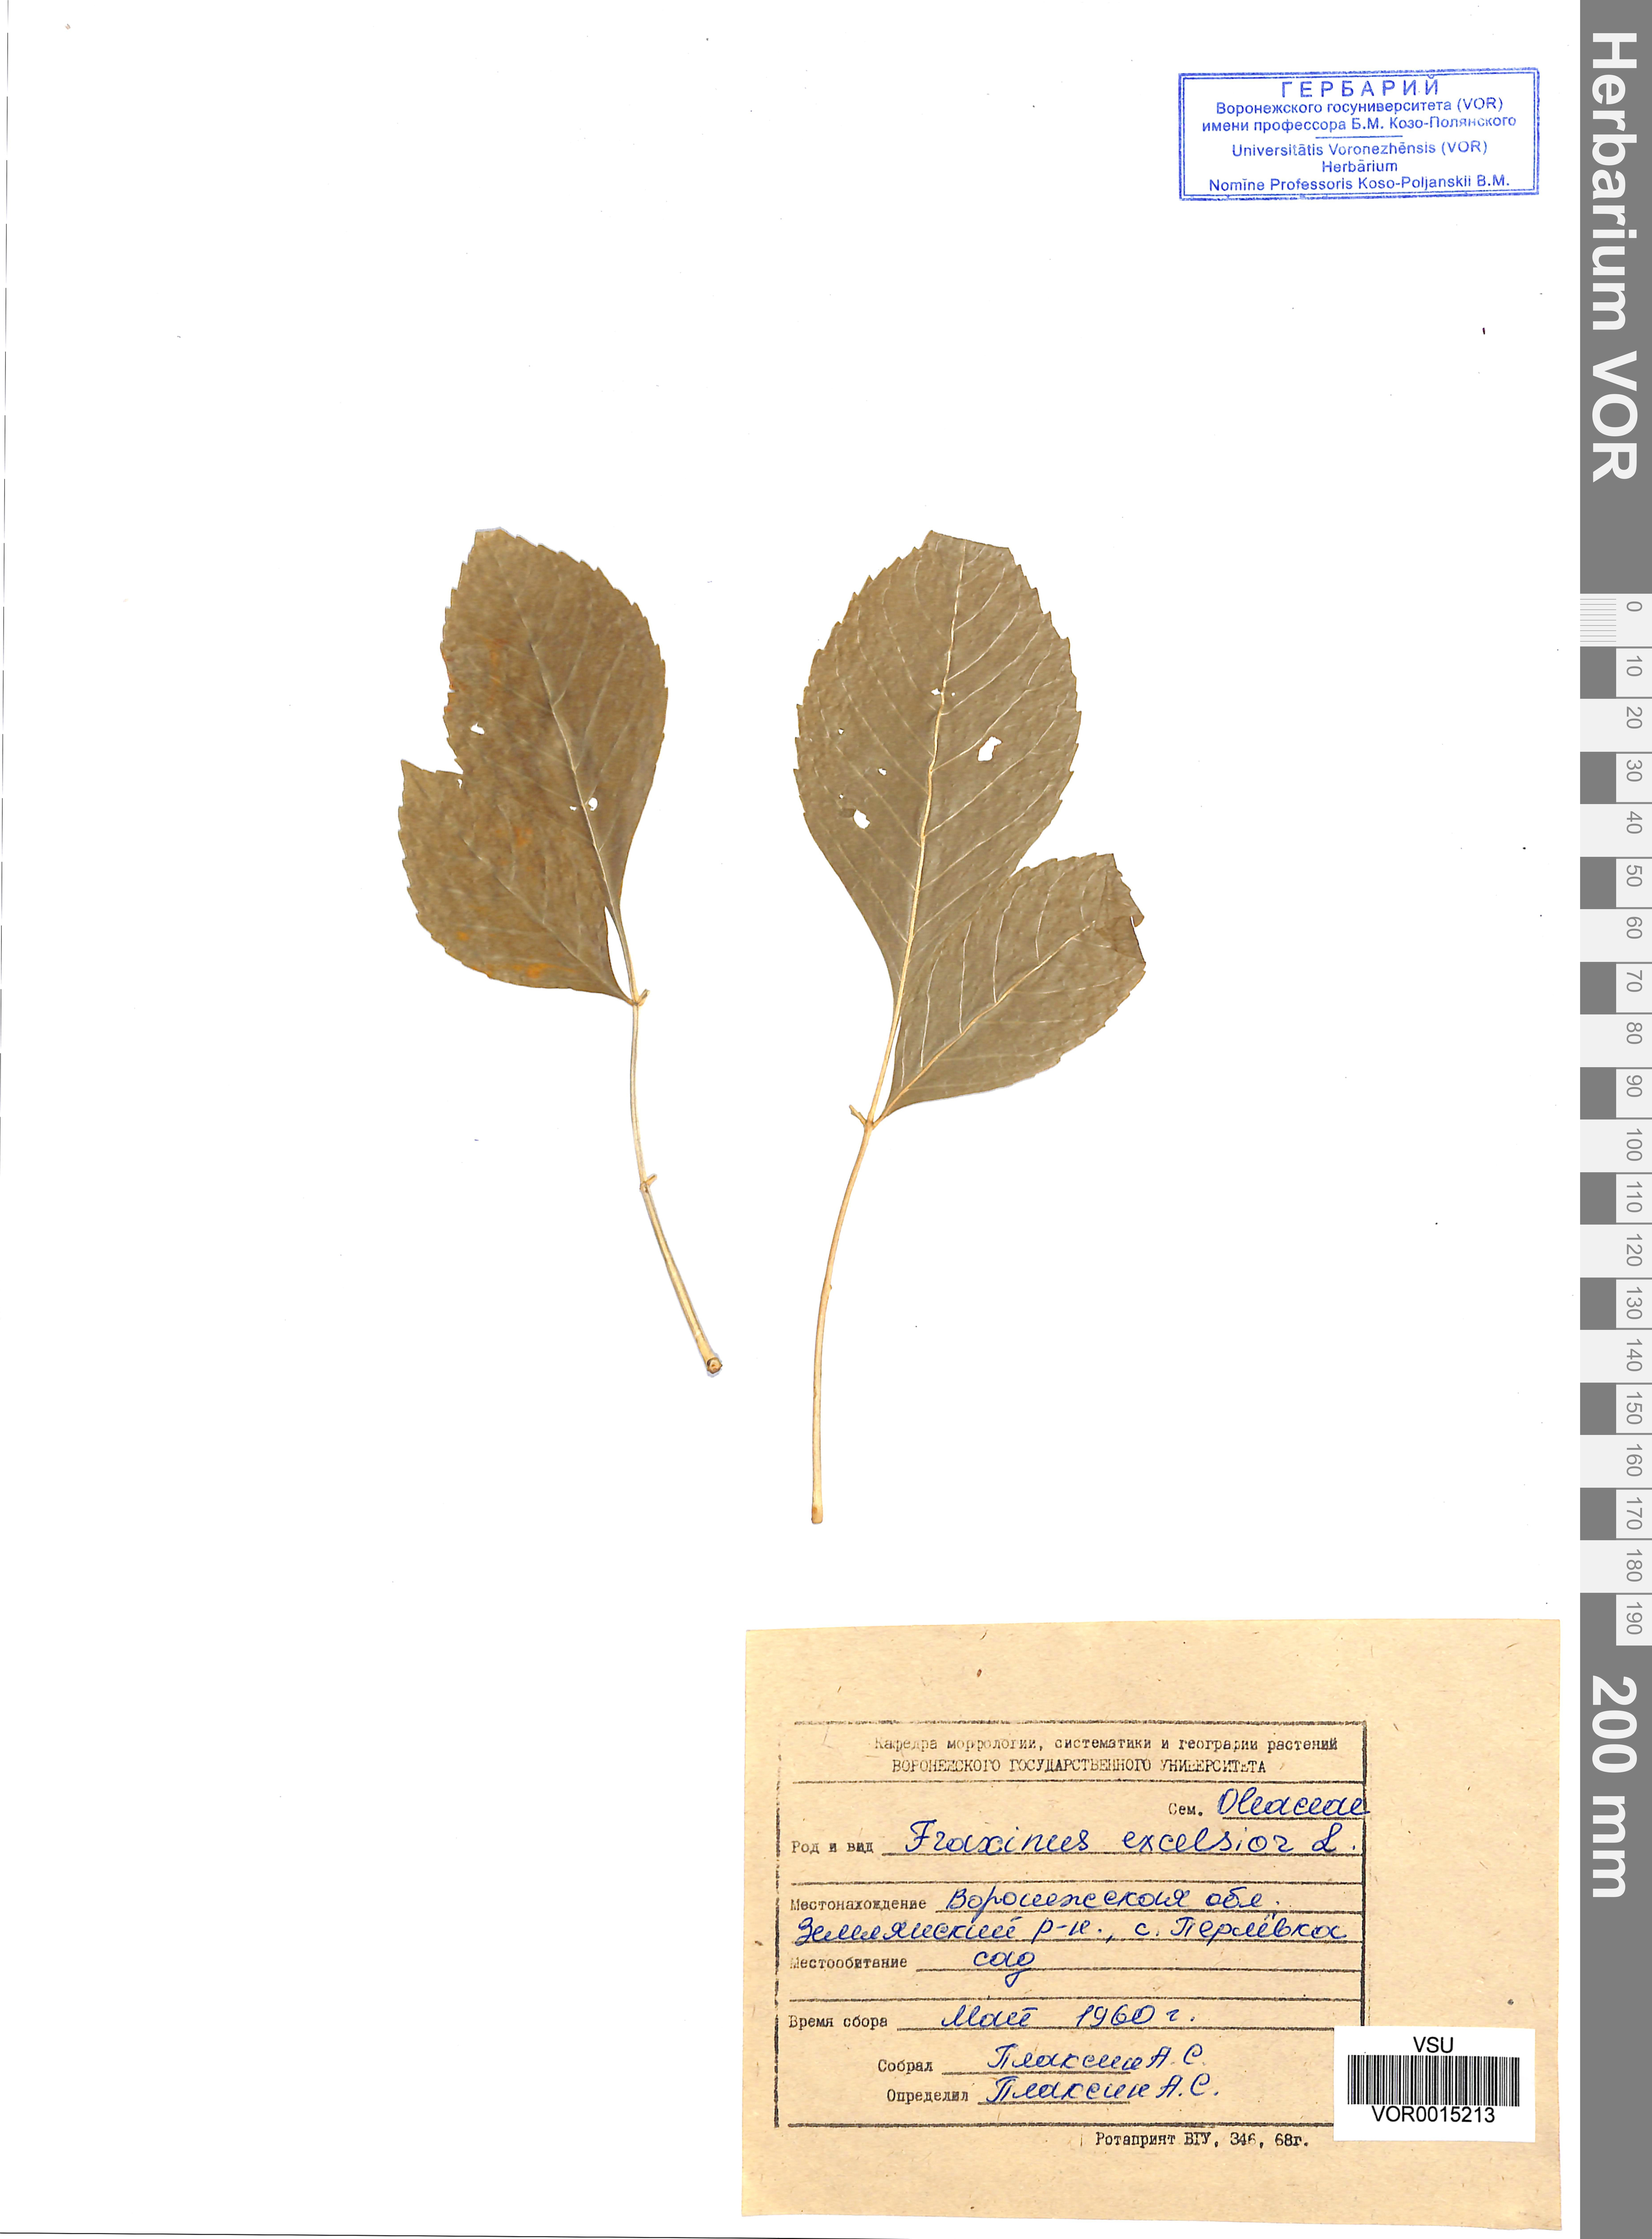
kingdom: Plantae
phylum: Tracheophyta
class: Magnoliopsida
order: Lamiales
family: Oleaceae
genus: Fraxinus
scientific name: Fraxinus excelsior
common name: European ash
